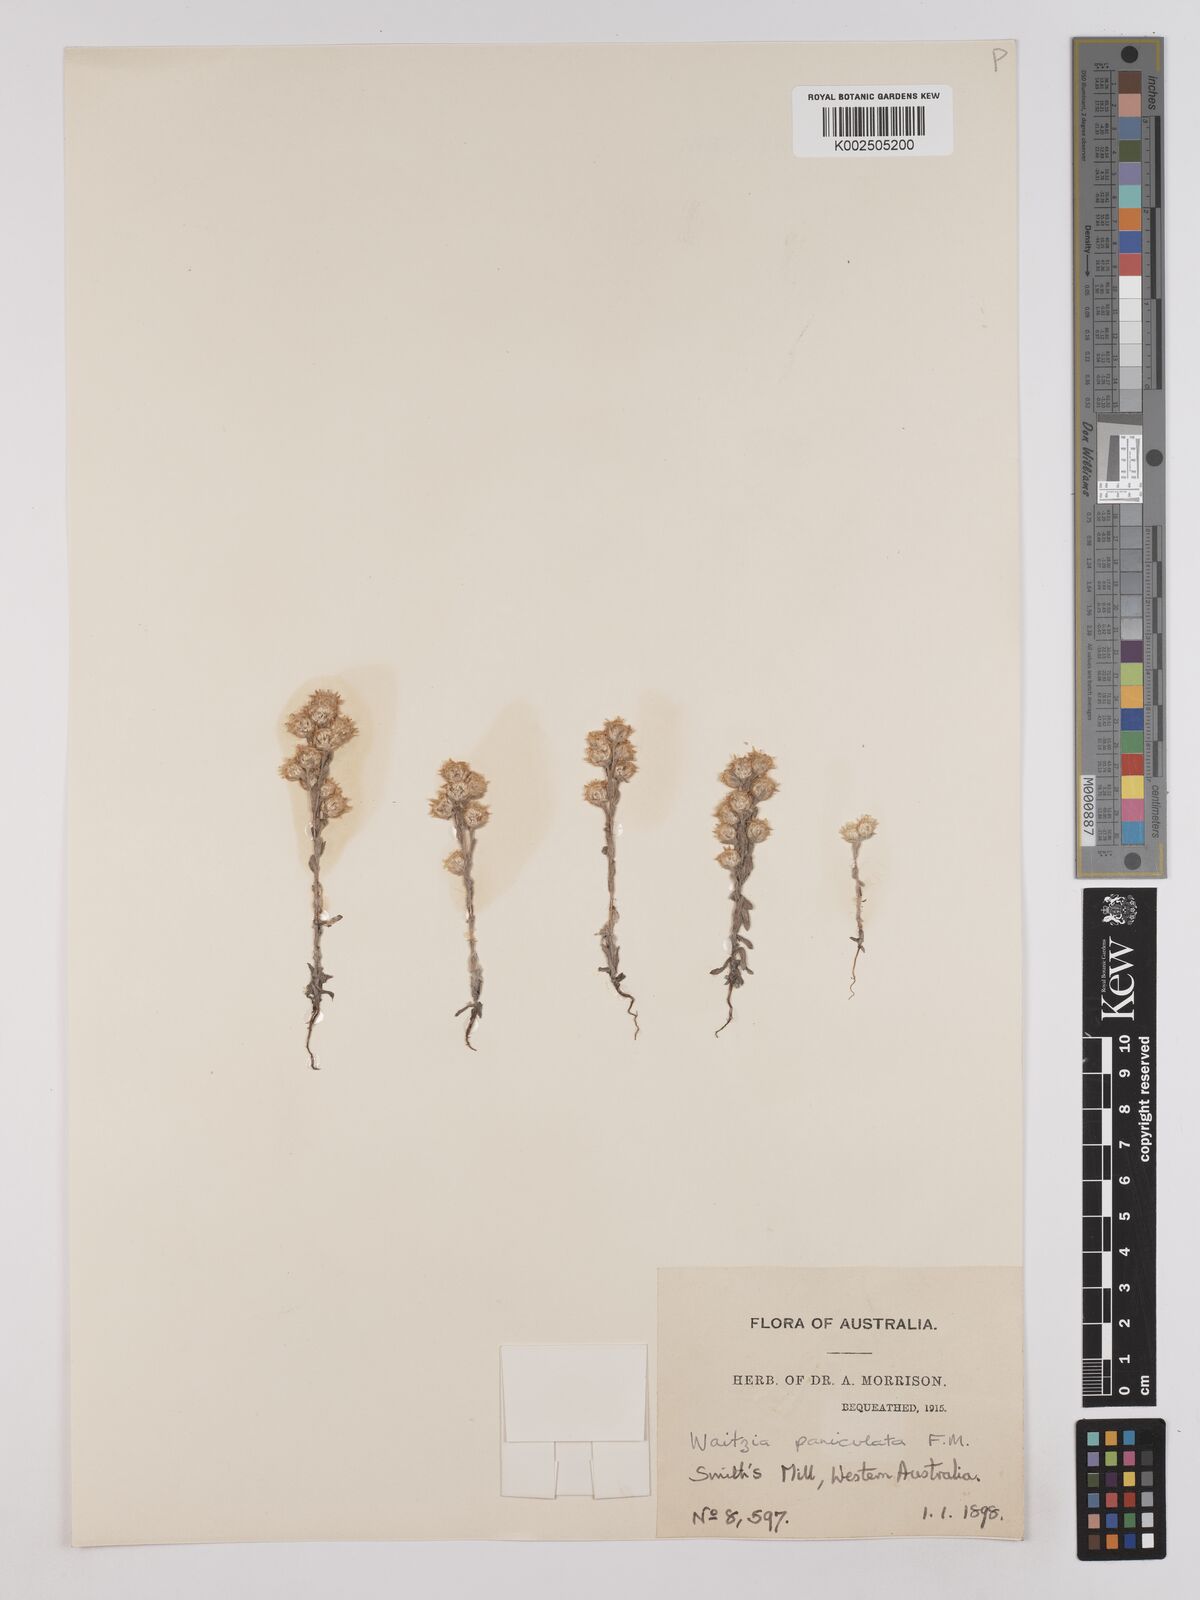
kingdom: Plantae
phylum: Tracheophyta
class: Magnoliopsida
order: Asterales
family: Asteraceae
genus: Pterochaeta
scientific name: Pterochaeta paniculata
